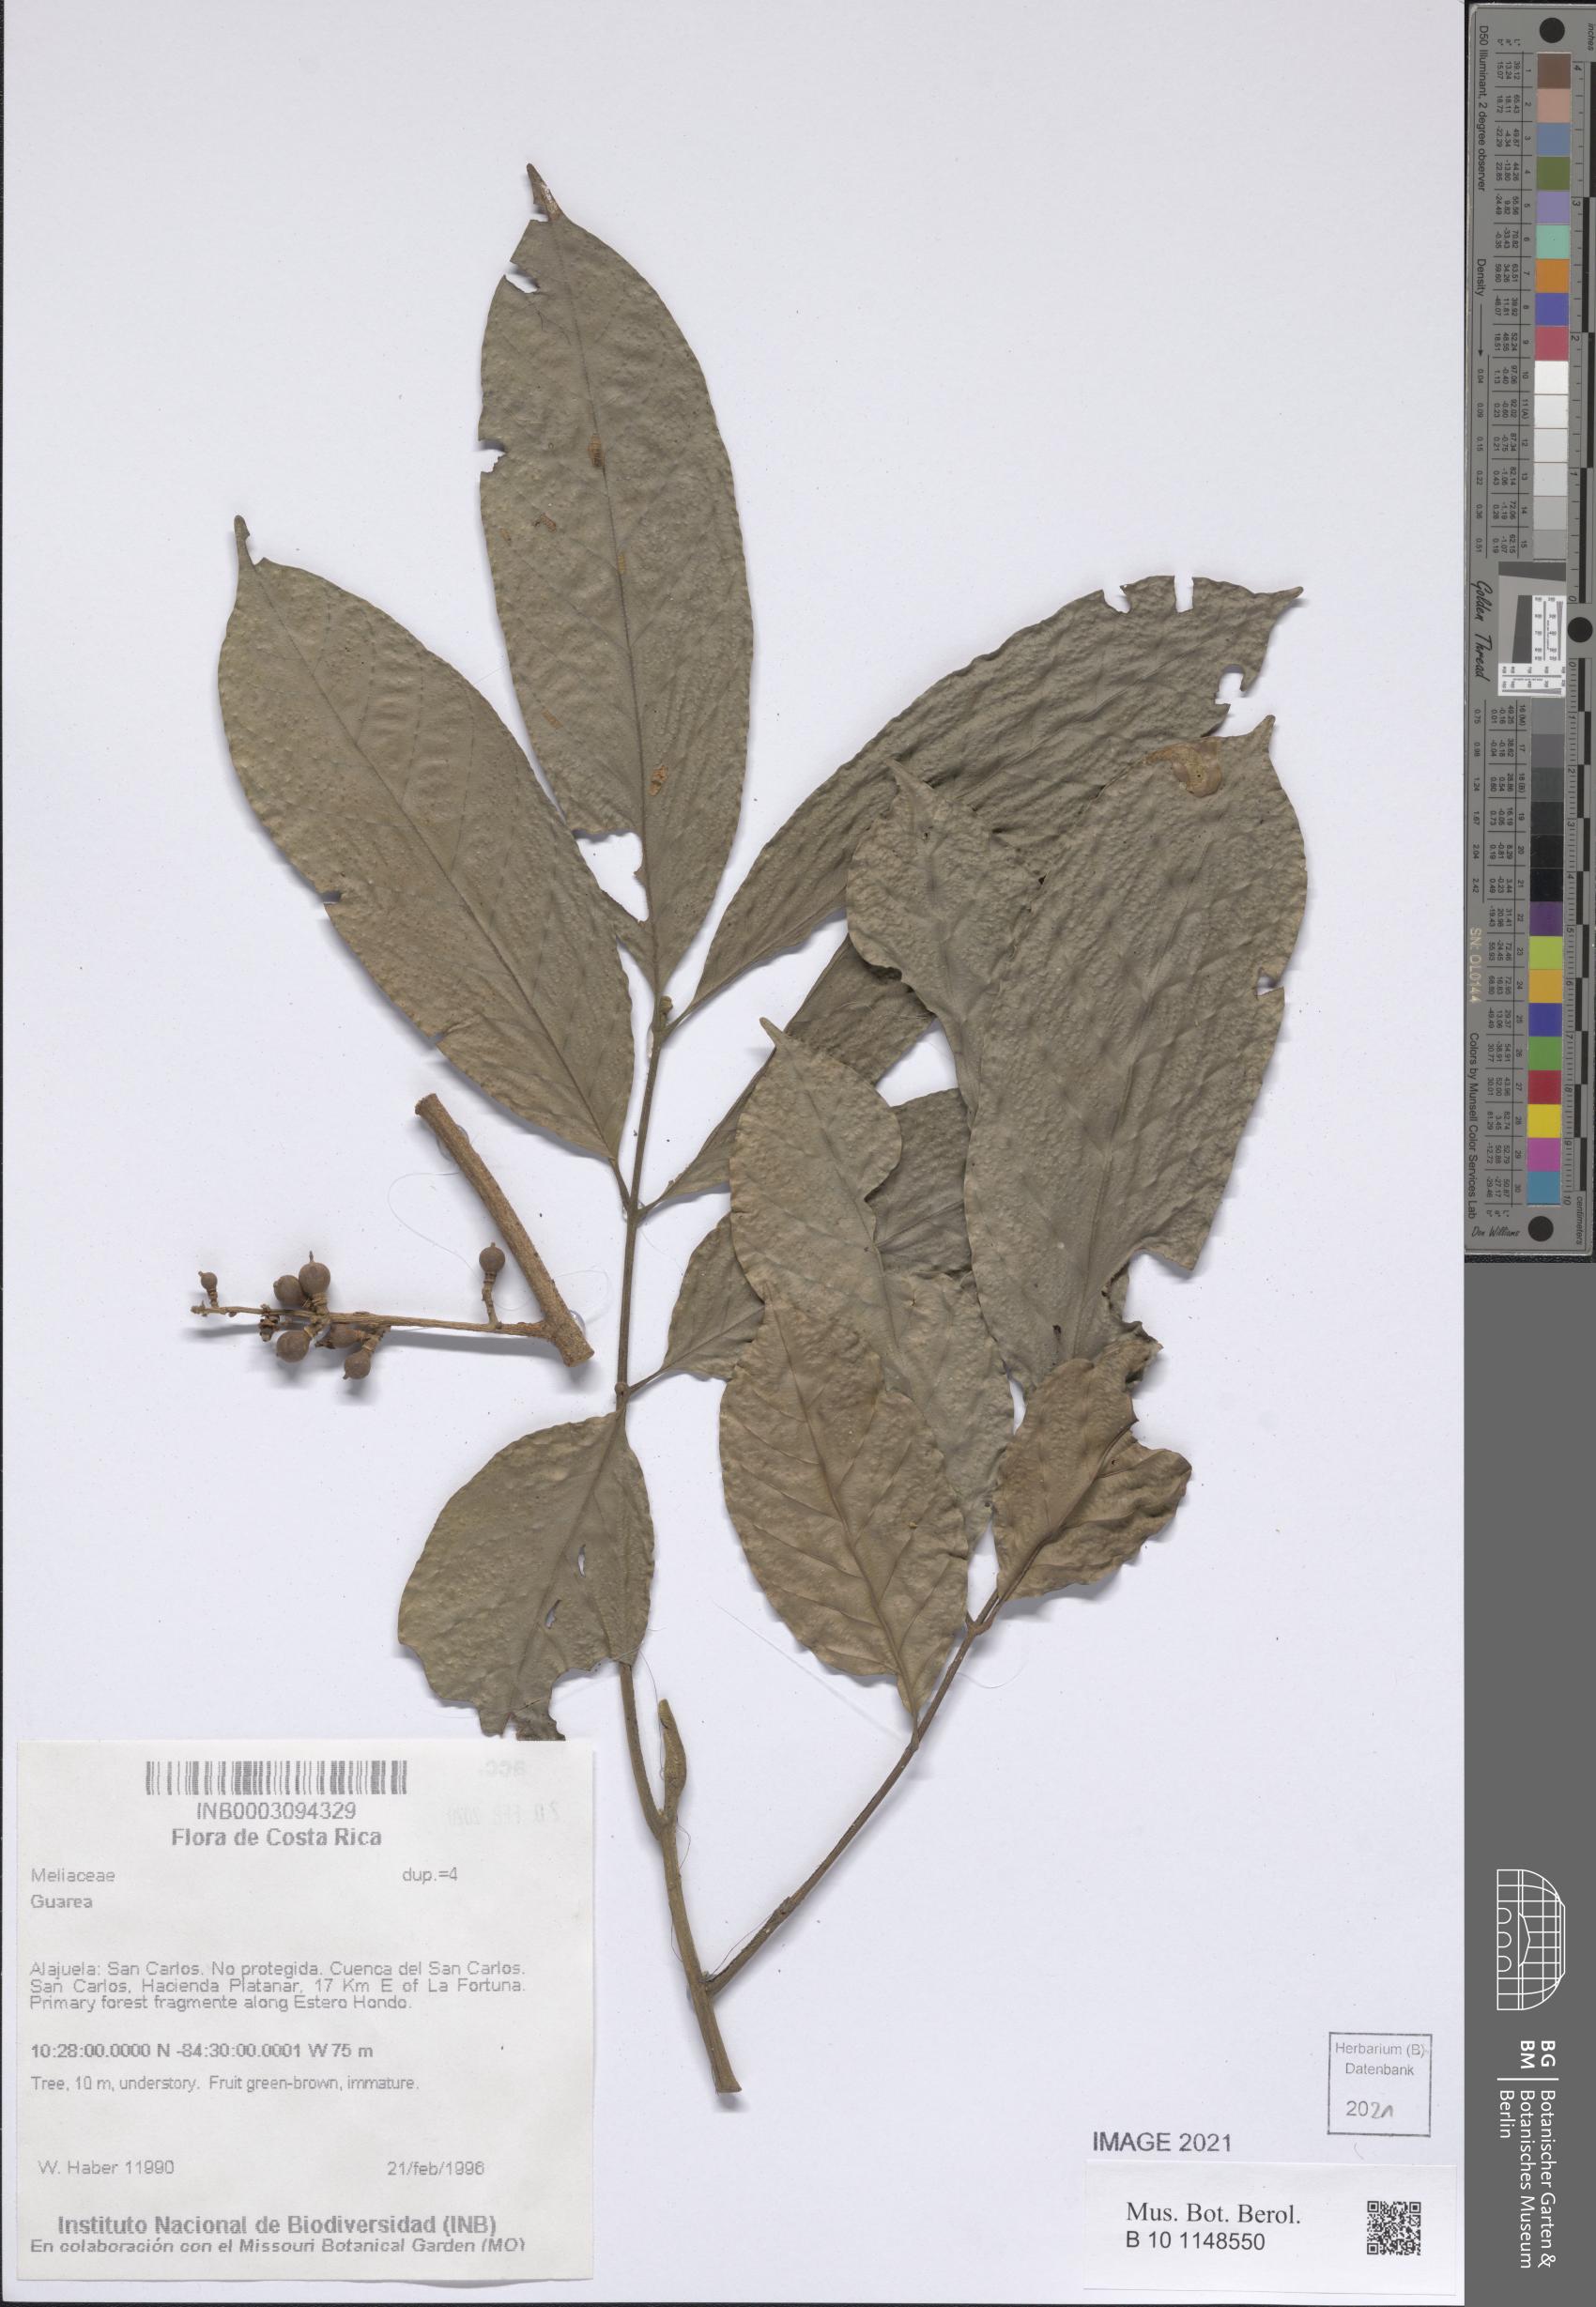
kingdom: Plantae
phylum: Tracheophyta
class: Magnoliopsida
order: Sapindales
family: Meliaceae
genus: Guarea
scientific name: Guarea
